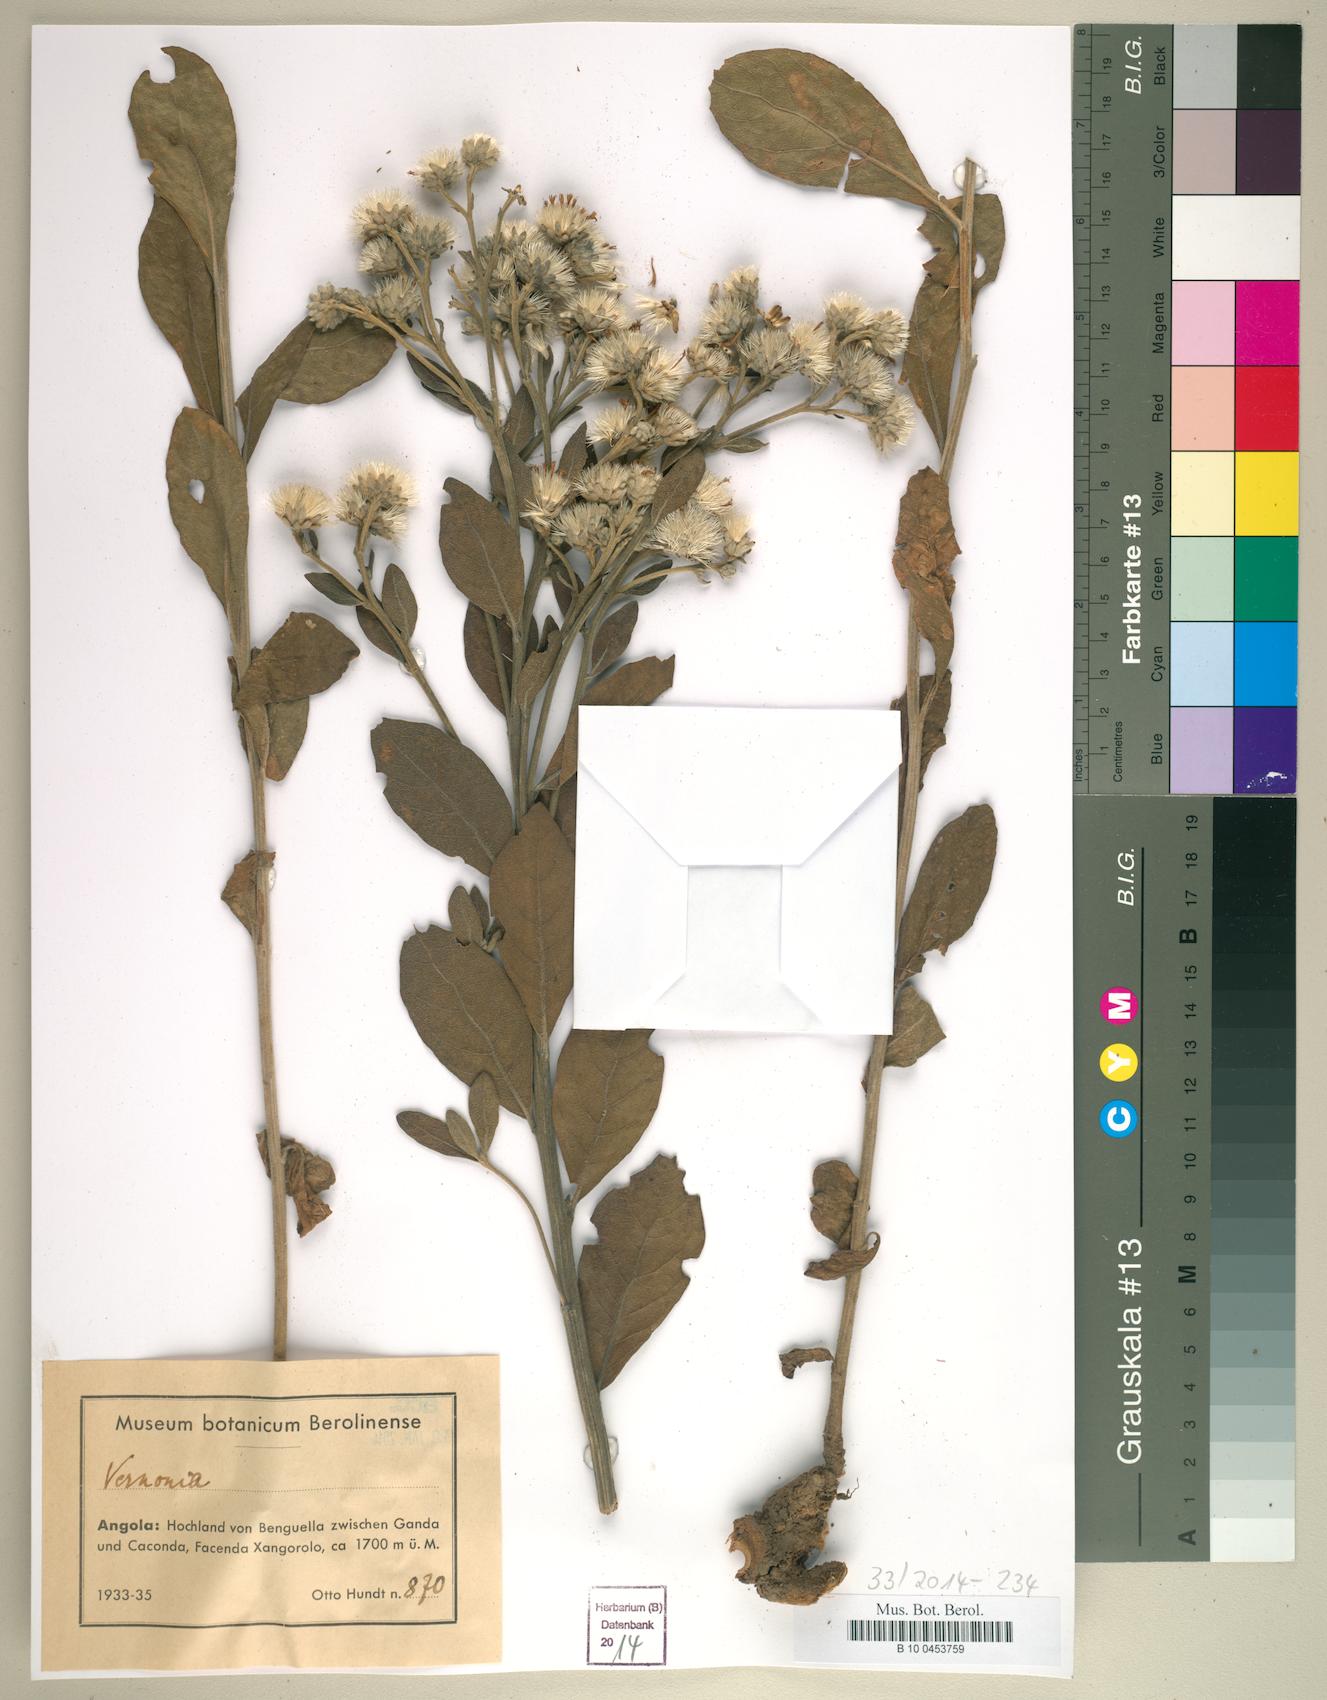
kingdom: Plantae
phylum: Tracheophyta
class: Magnoliopsida
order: Asterales
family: Asteraceae
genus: Vernonia
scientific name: Vernonia
